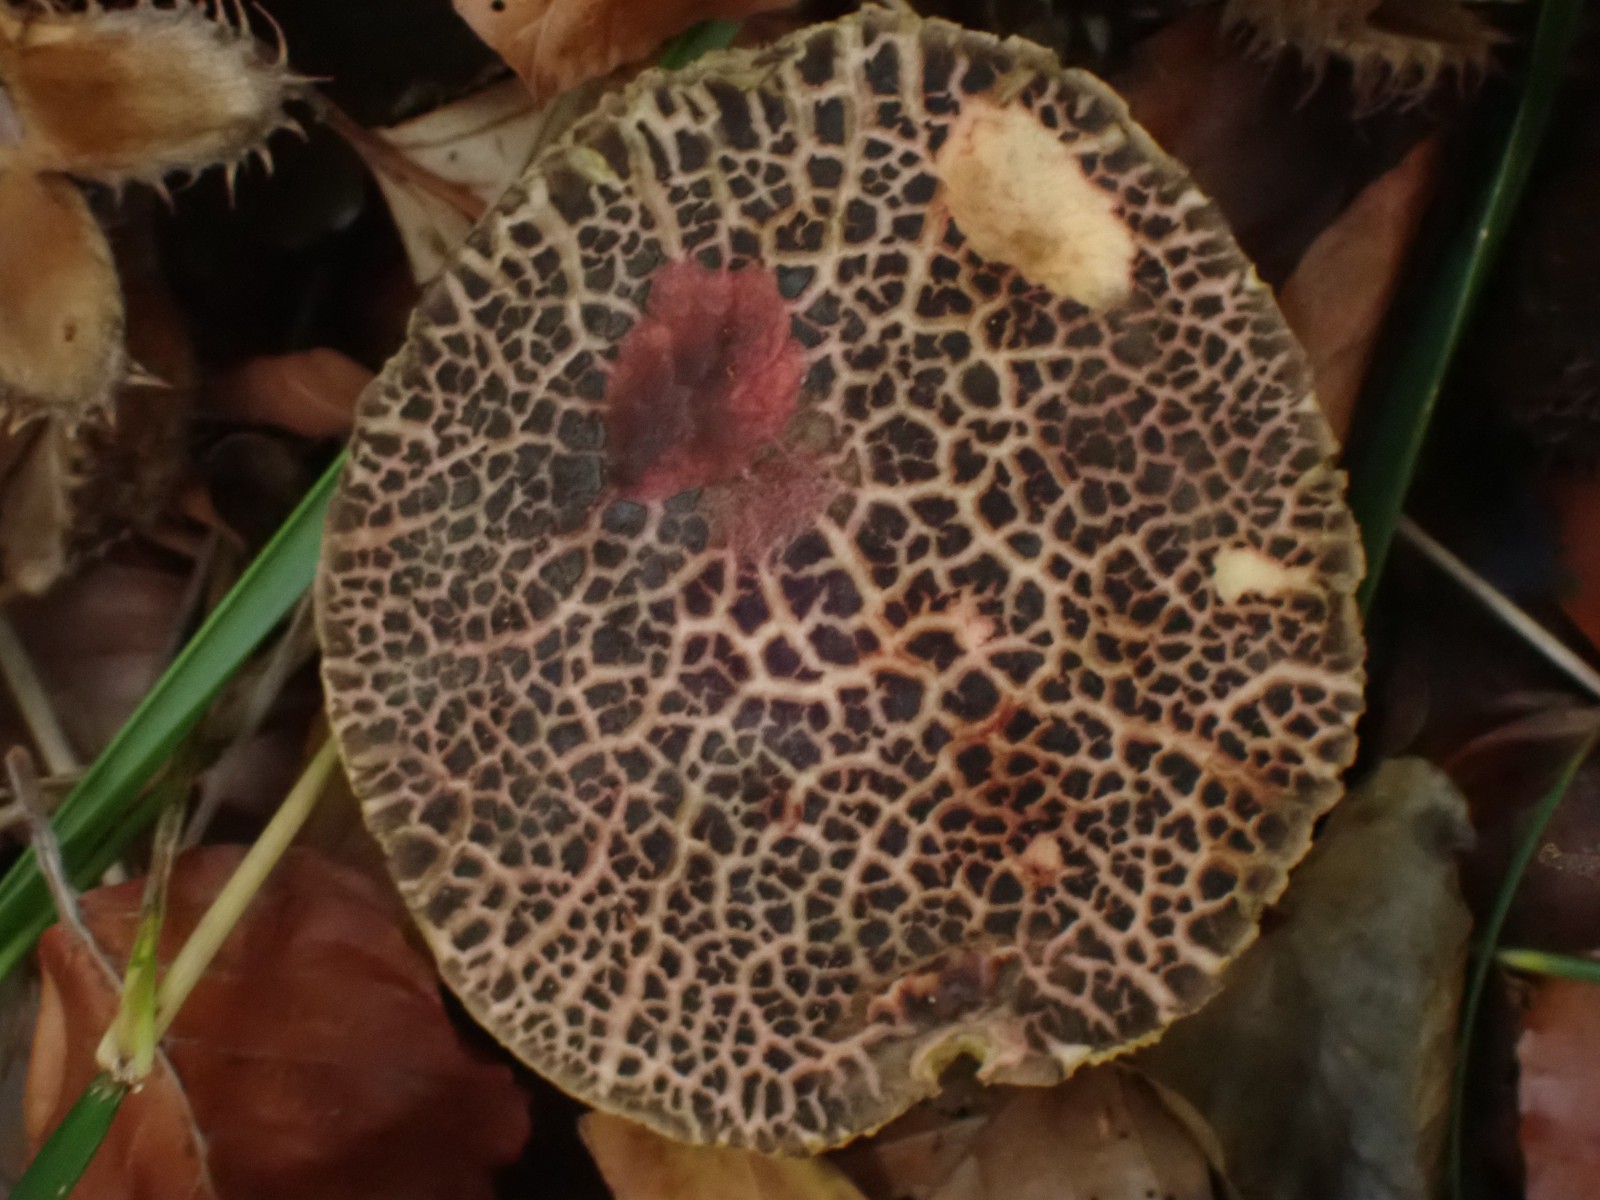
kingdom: Fungi
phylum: Basidiomycota
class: Agaricomycetes
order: Boletales
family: Boletaceae
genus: Xerocomellus
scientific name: Xerocomellus chrysenteron
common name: rødsprukken rørhat
